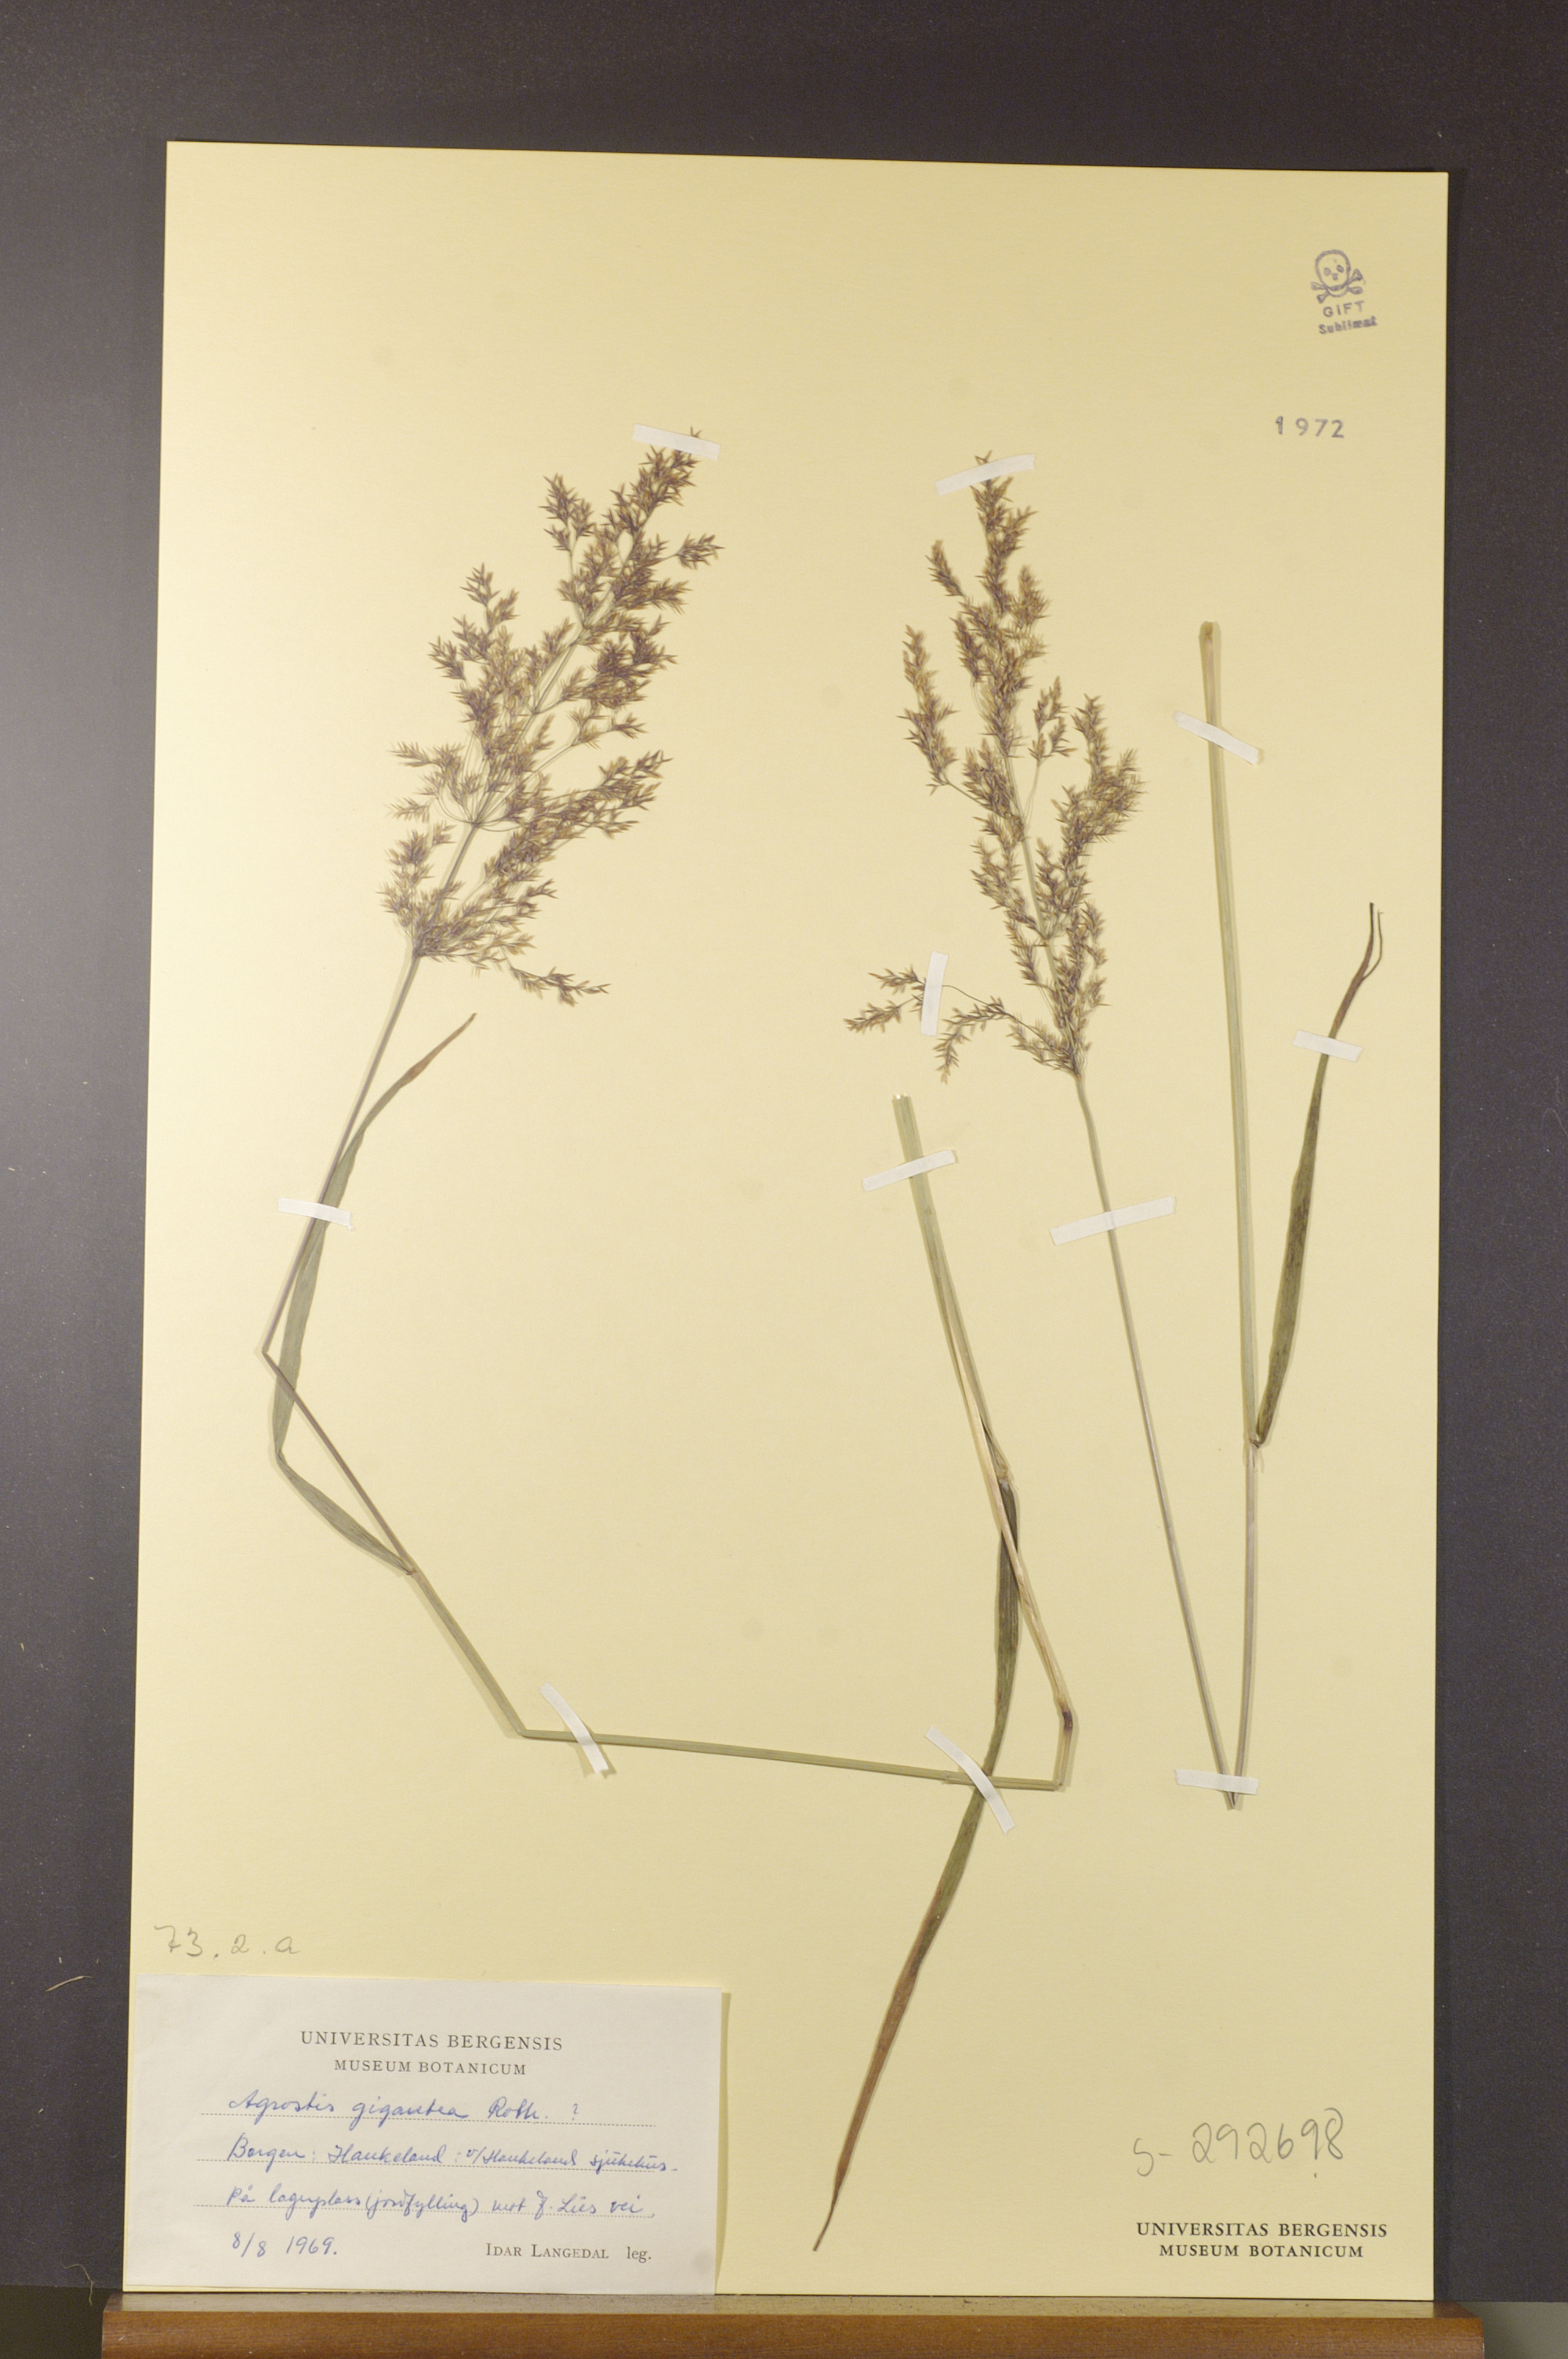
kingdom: Plantae
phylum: Tracheophyta
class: Liliopsida
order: Poales
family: Poaceae
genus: Agrostis
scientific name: Agrostis gigantea
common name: Black bent
